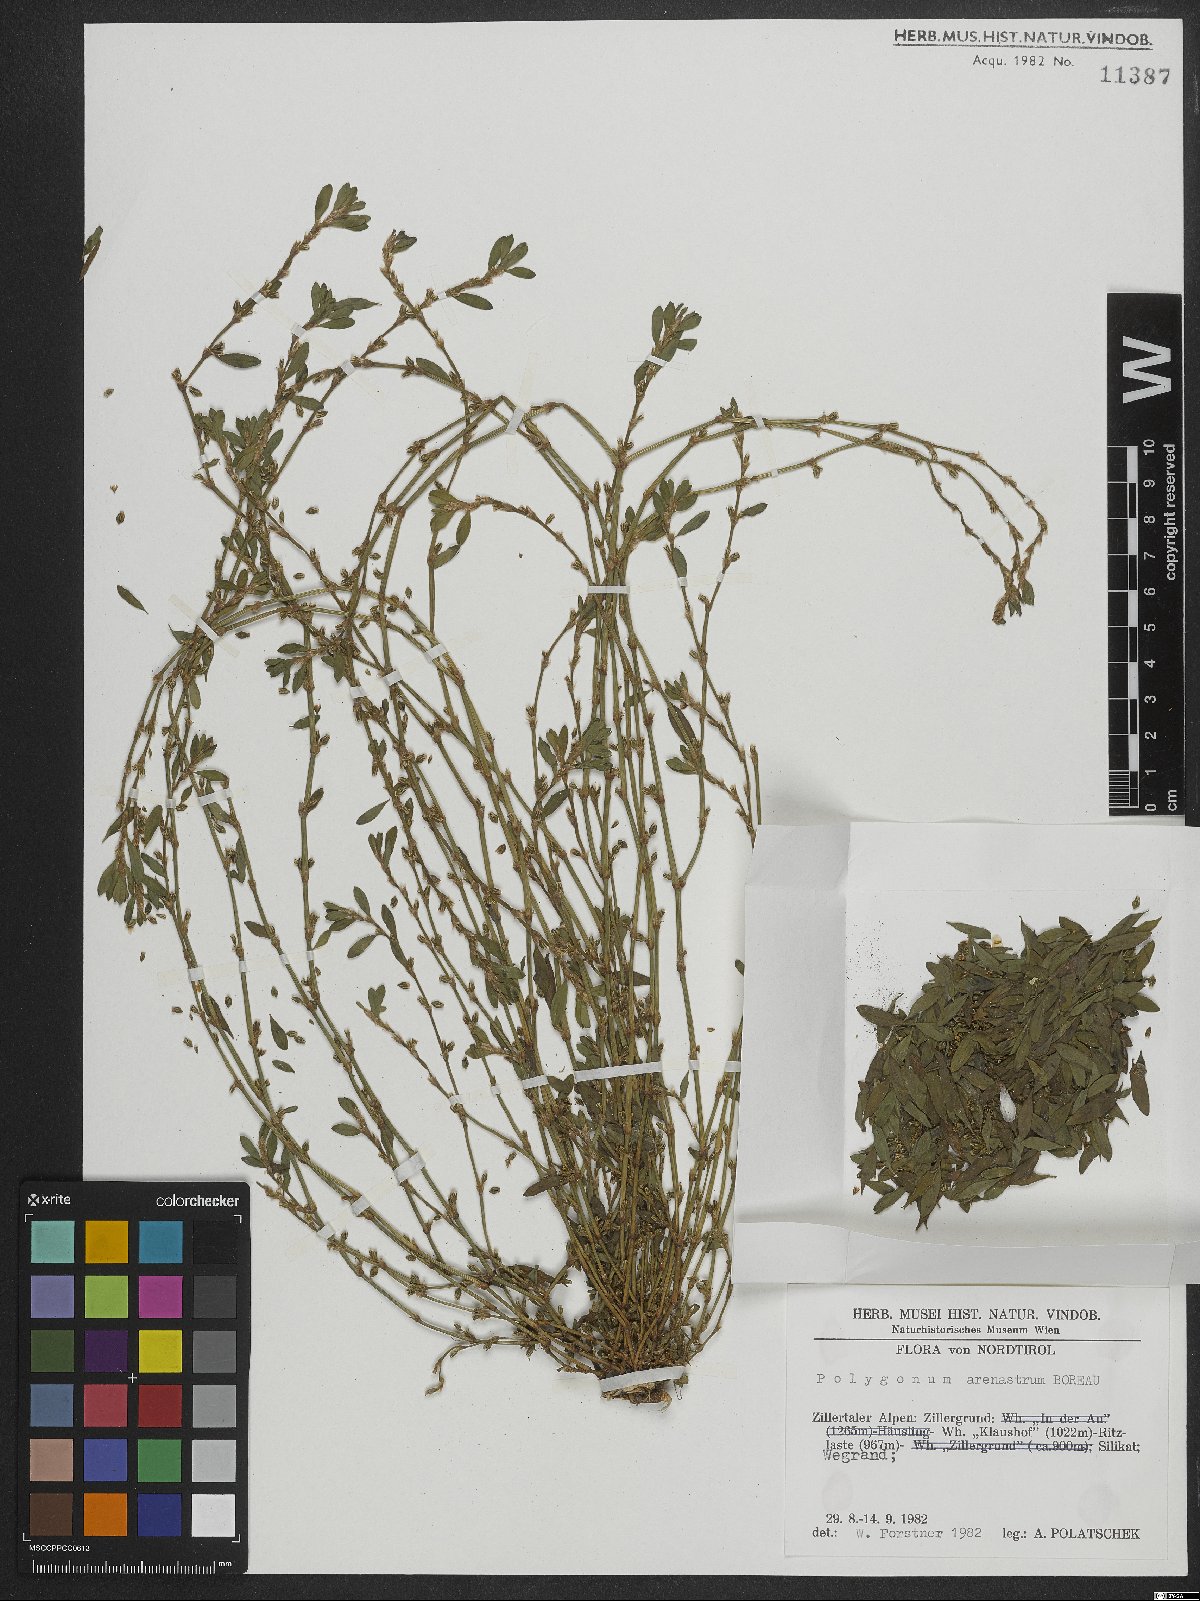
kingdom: Plantae
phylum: Tracheophyta
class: Magnoliopsida
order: Caryophyllales
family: Polygonaceae
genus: Polygonum
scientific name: Polygonum arenastrum
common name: Equal-leaved knotgrass
